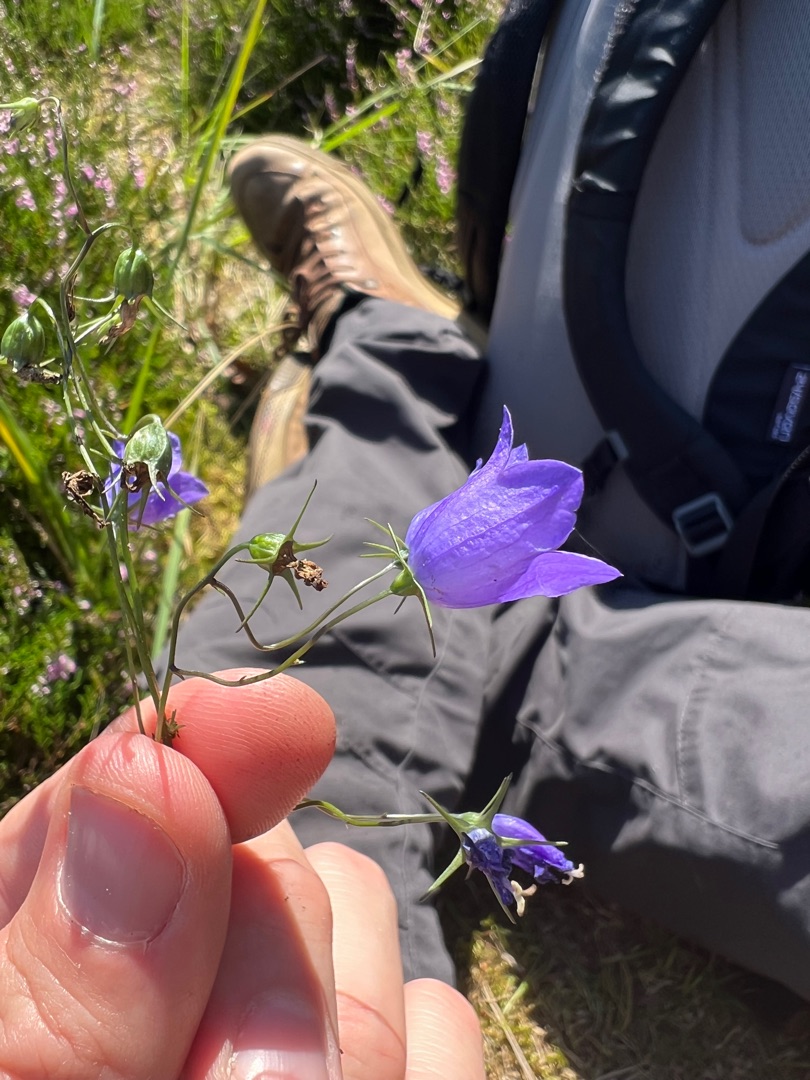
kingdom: Plantae
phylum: Tracheophyta
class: Magnoliopsida
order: Asterales
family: Campanulaceae
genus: Campanula
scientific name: Campanula rotundifolia
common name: Liden klokke
